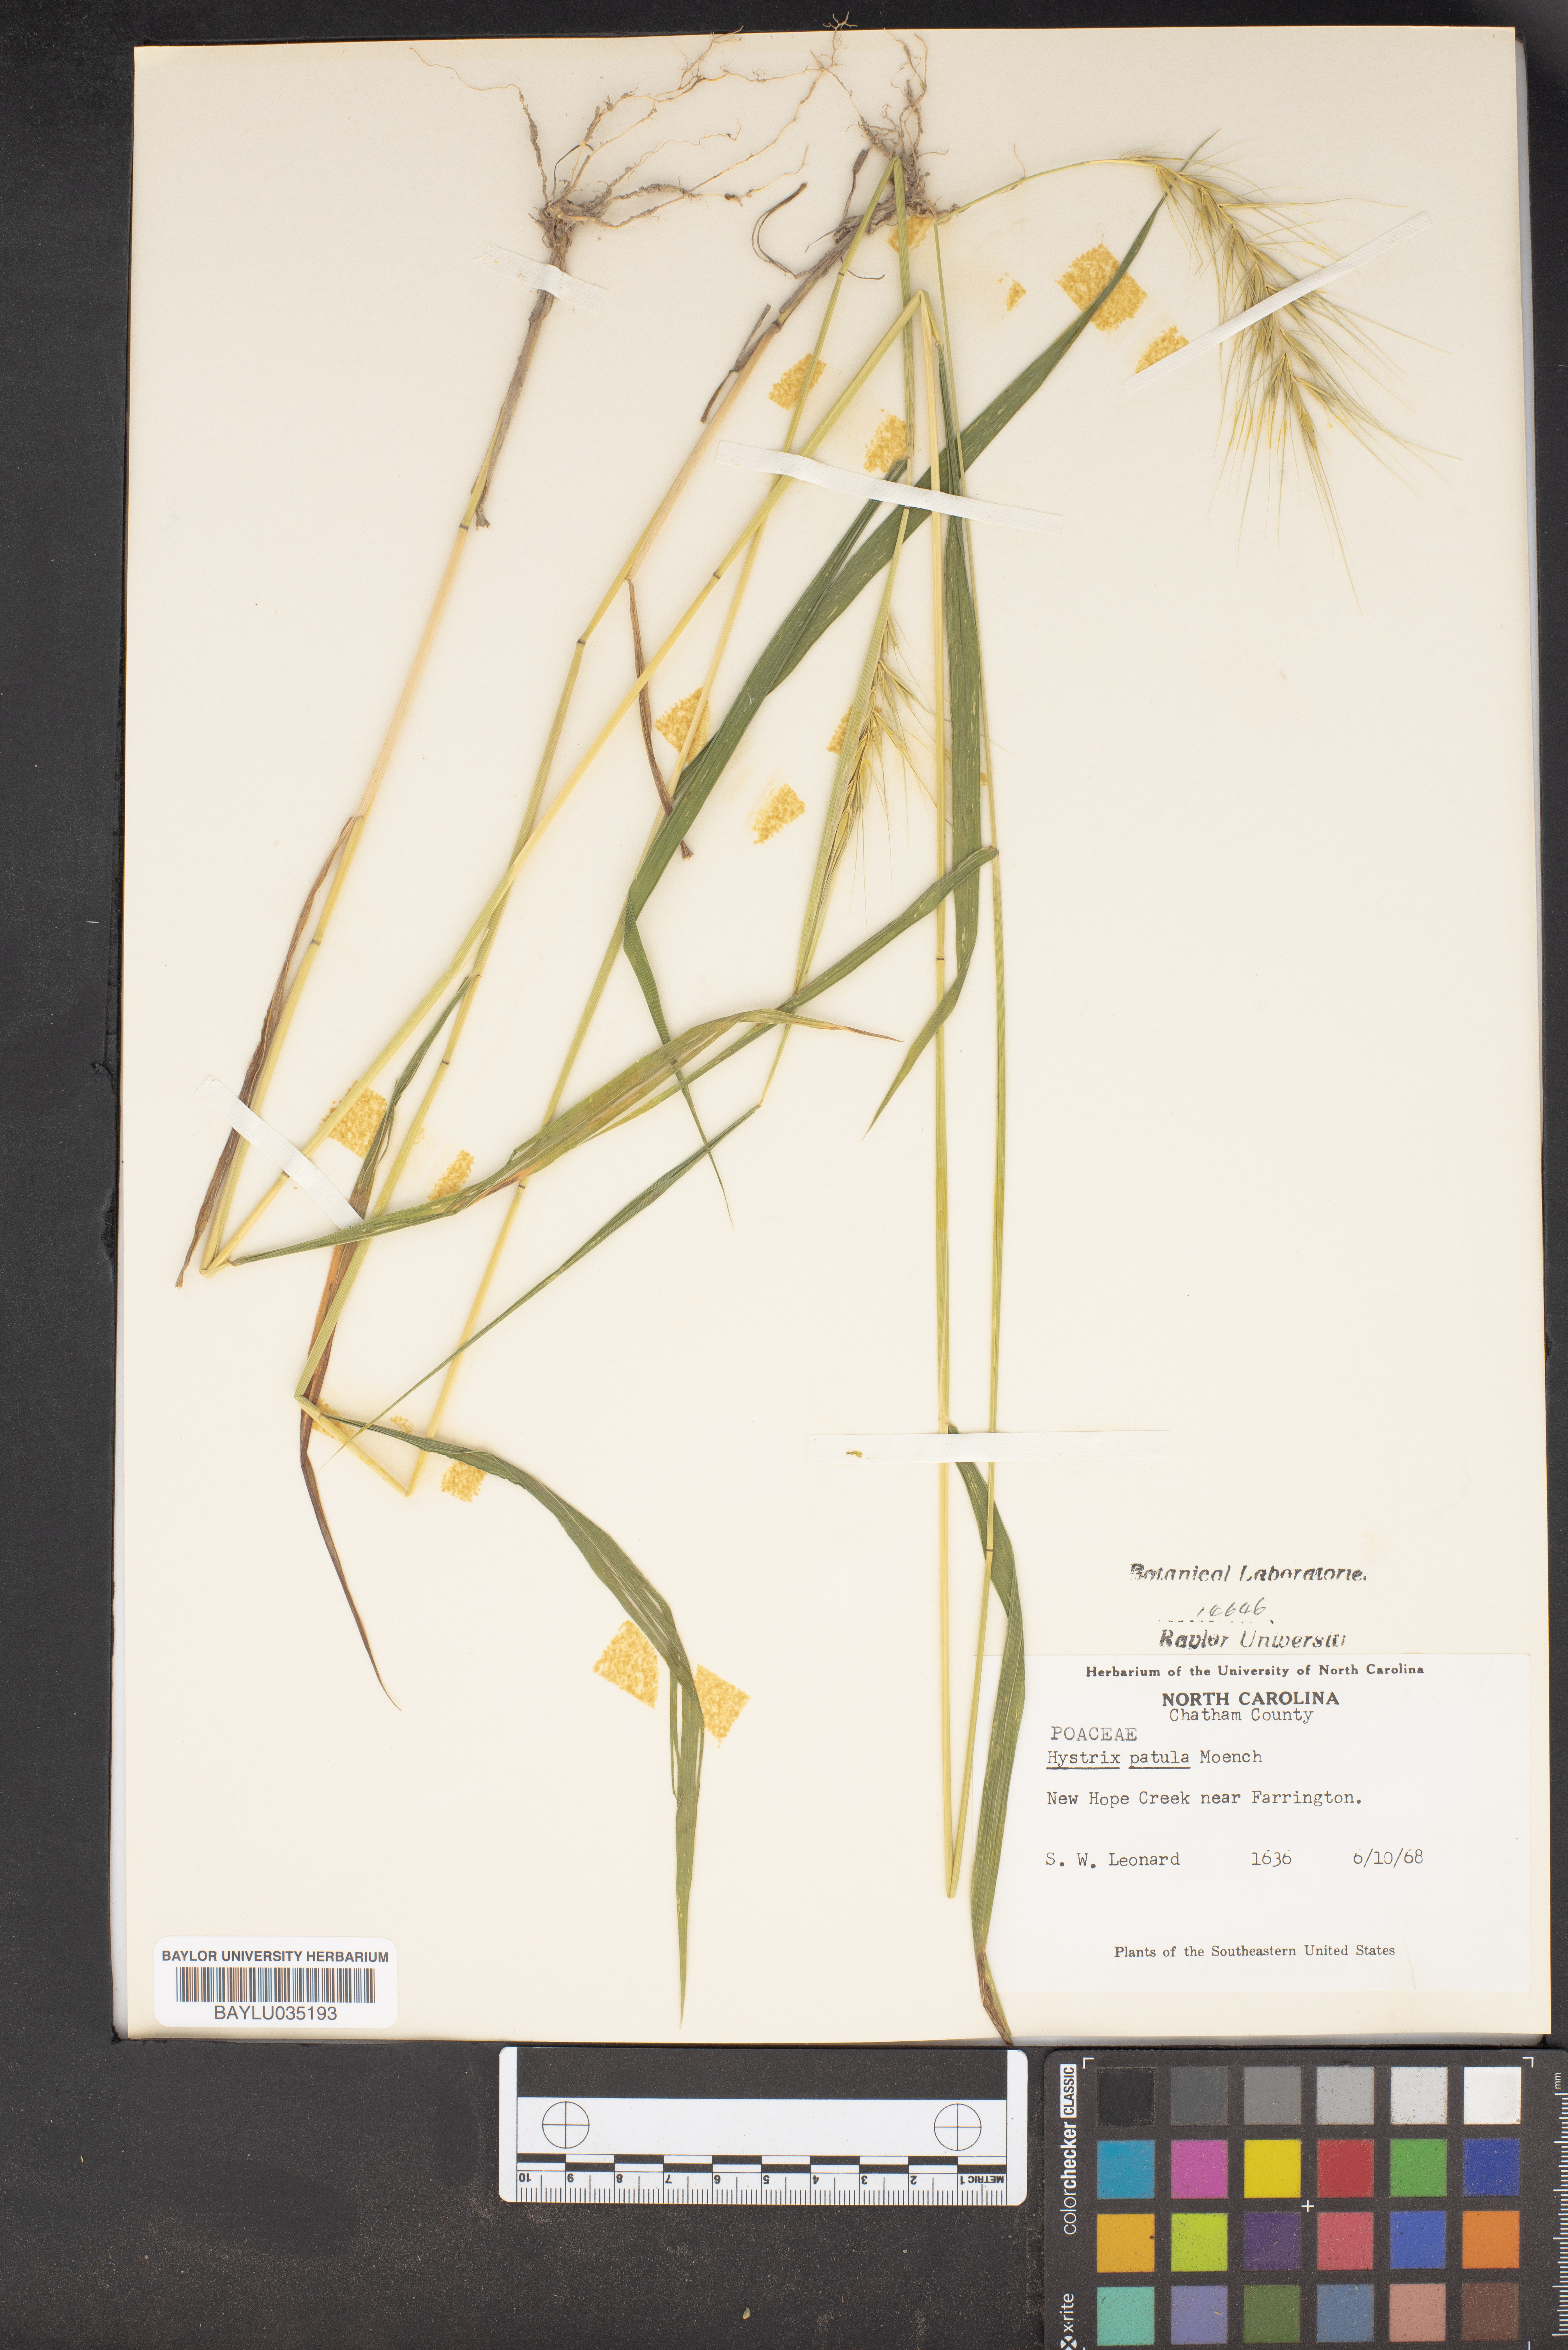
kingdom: Plantae
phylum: Tracheophyta
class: Liliopsida
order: Poales
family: Poaceae
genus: Elymus
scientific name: Elymus hystrix
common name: Bottlebrush grass
